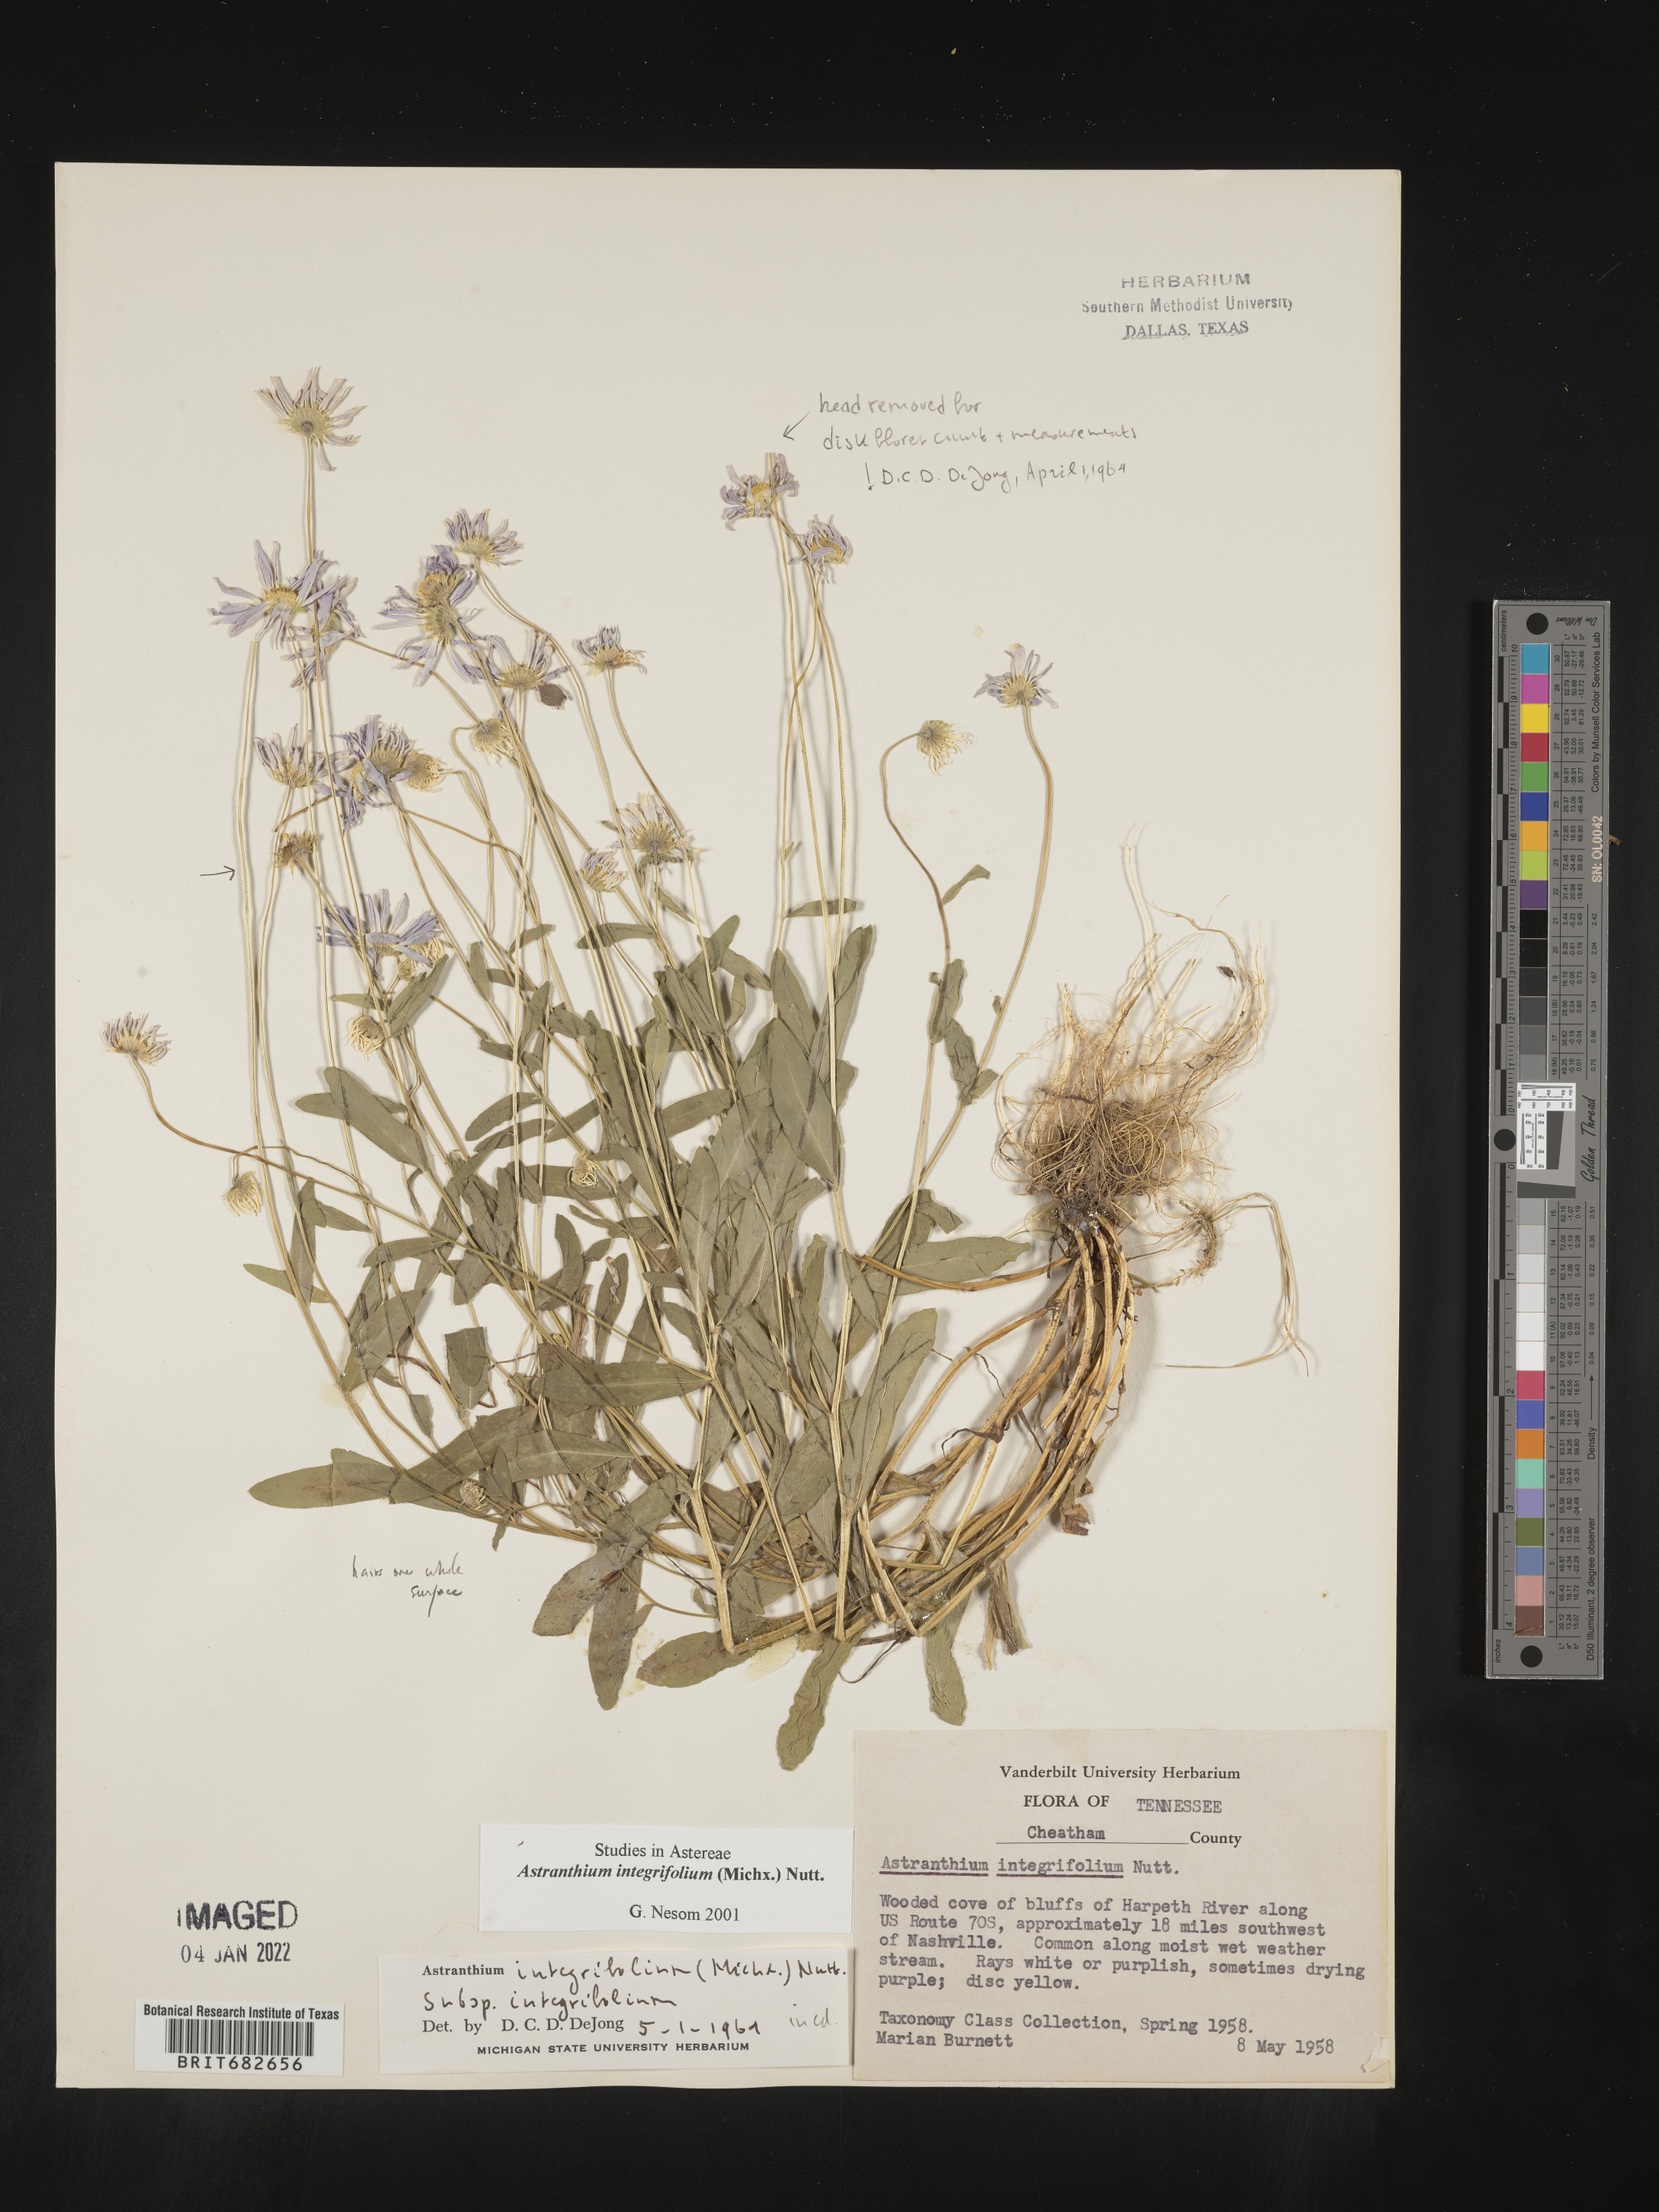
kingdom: Plantae
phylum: Tracheophyta
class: Magnoliopsida
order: Asterales
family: Asteraceae
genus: Astranthium
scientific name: Astranthium
